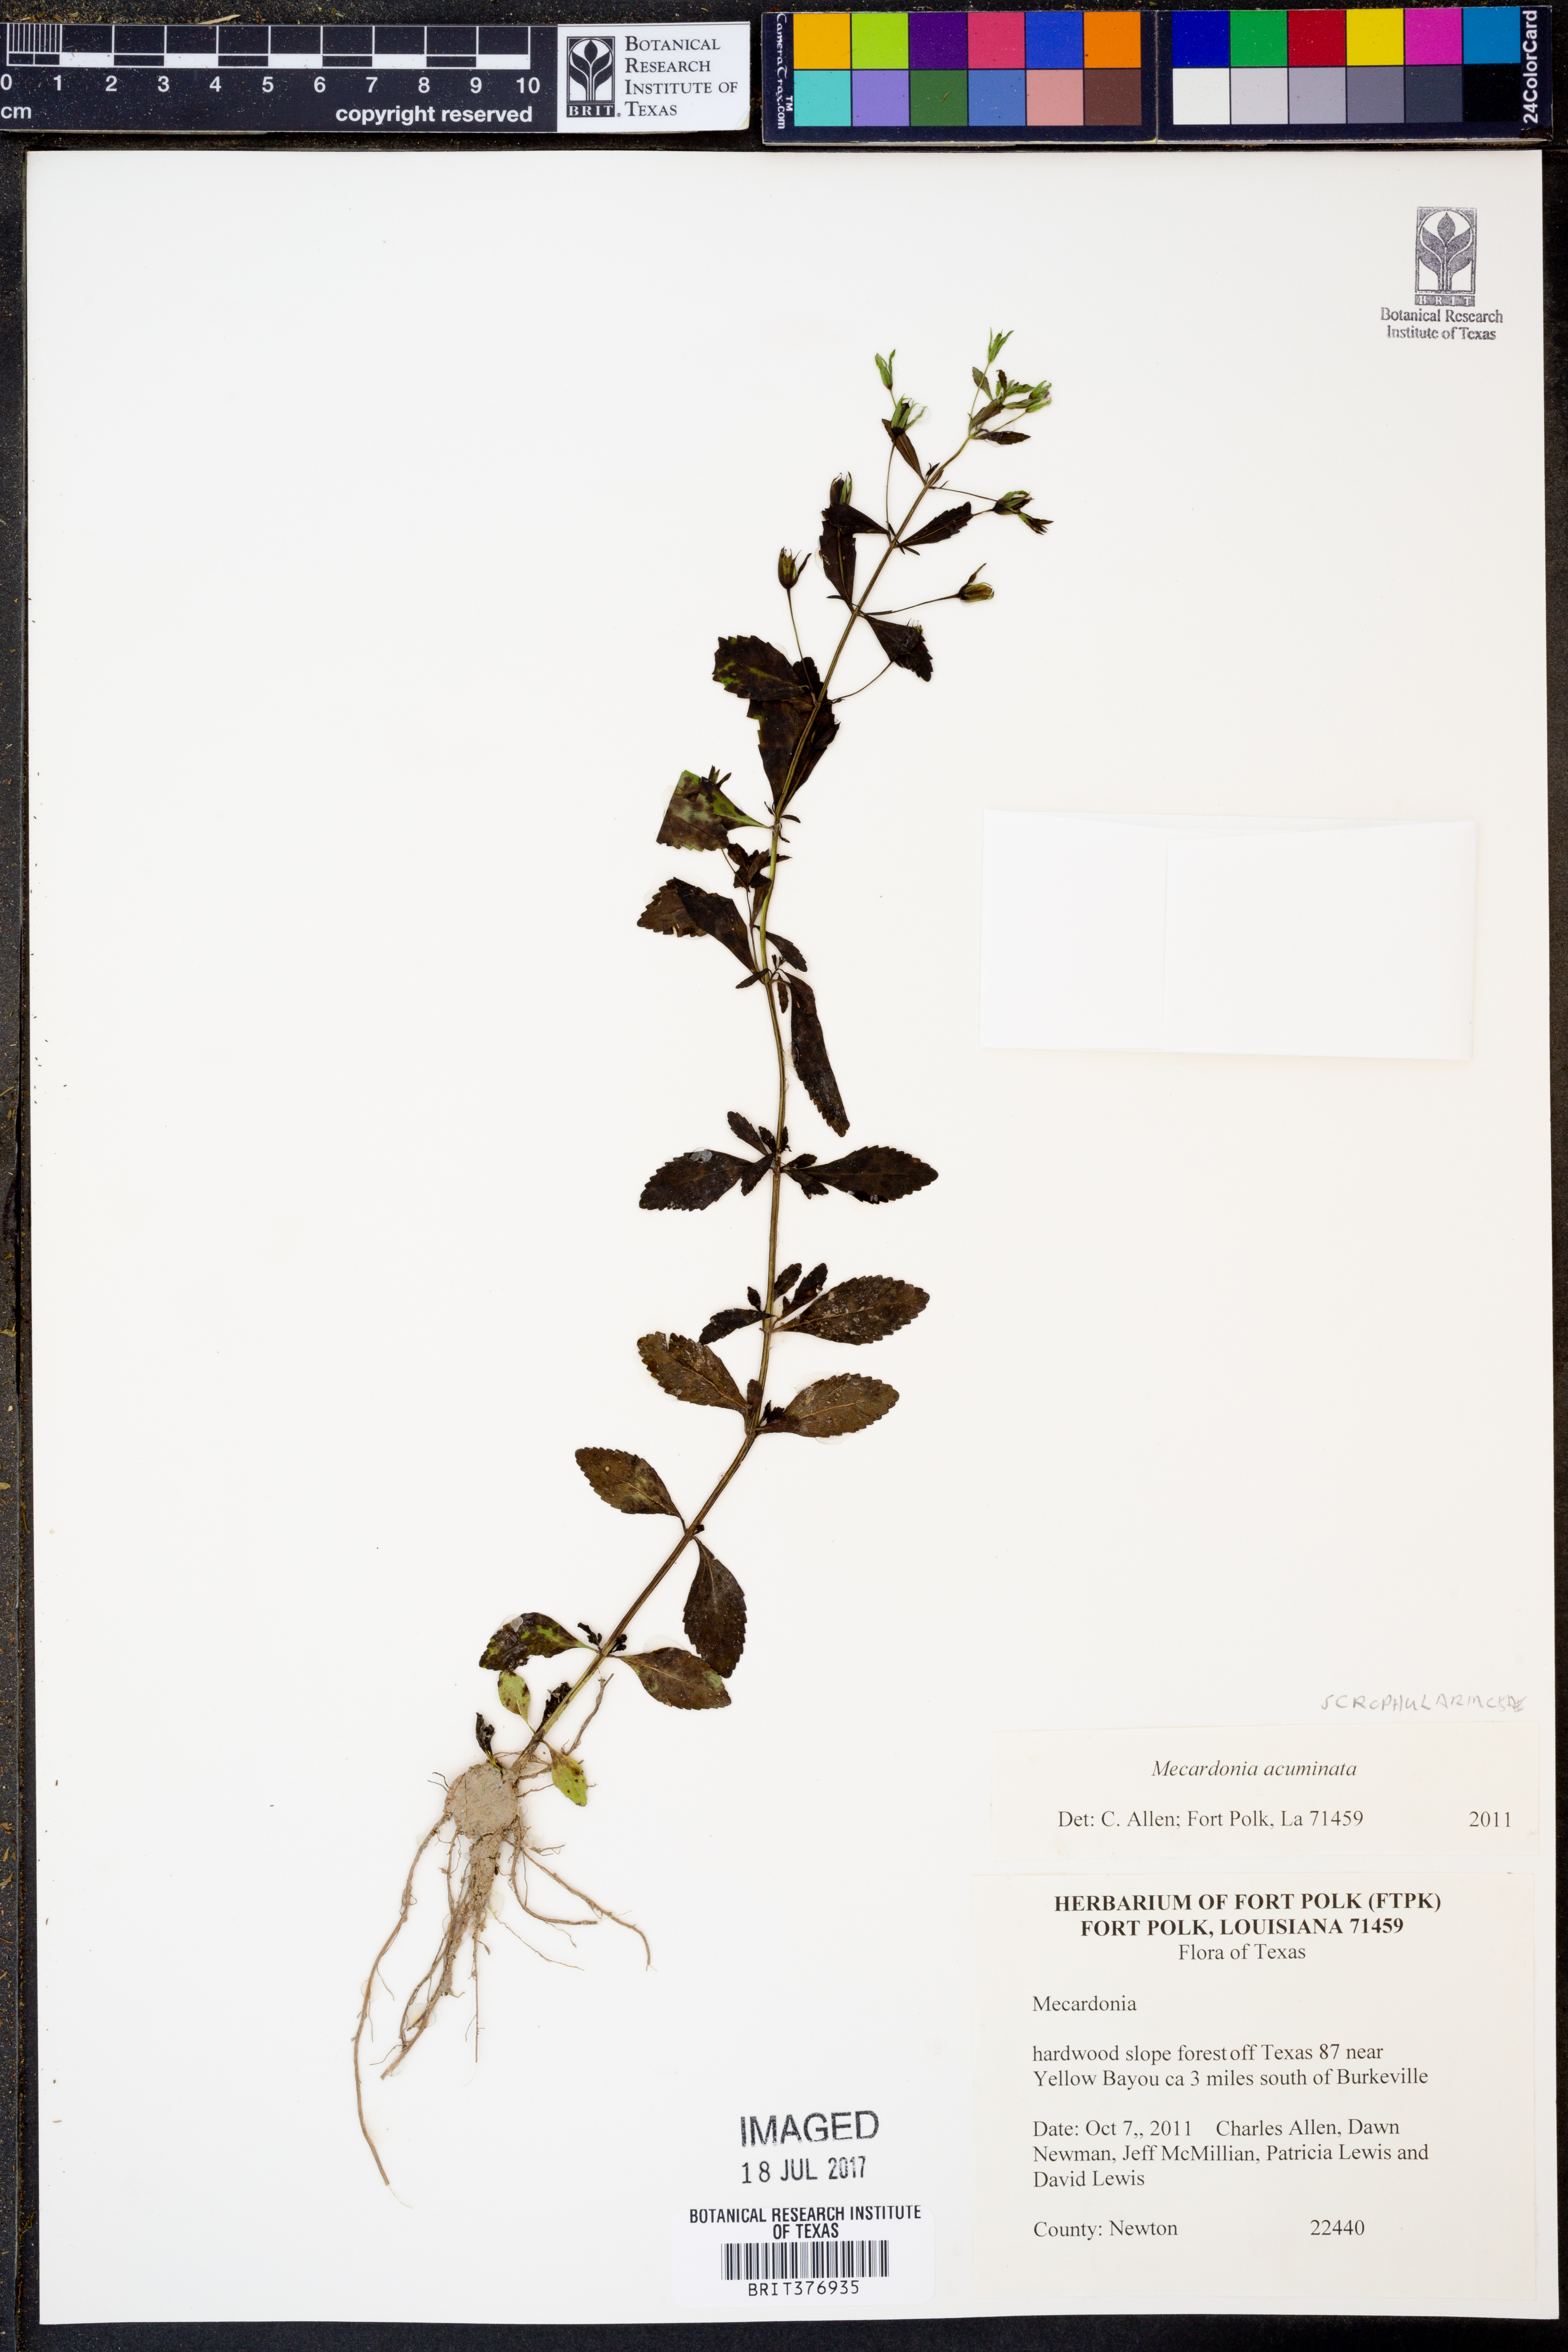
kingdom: Plantae
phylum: Tracheophyta
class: Magnoliopsida
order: Lamiales
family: Plantaginaceae
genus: Mecardonia
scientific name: Mecardonia acuminata
